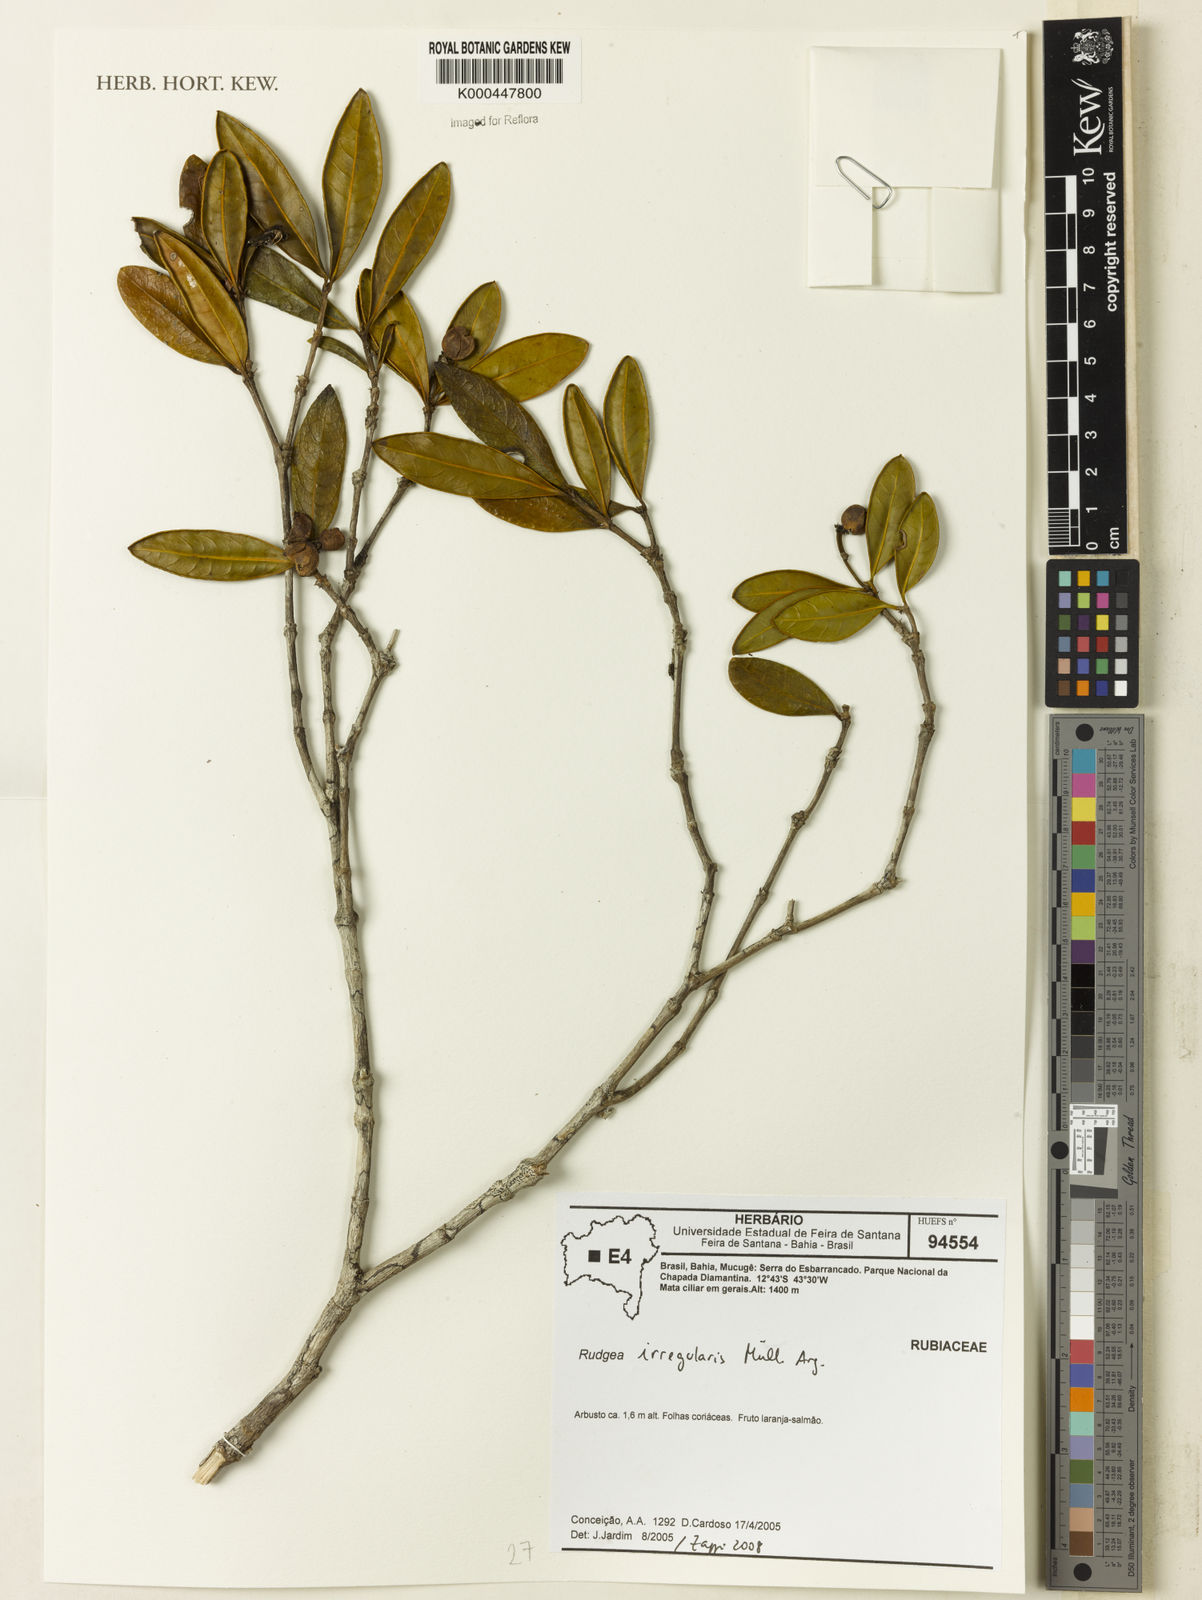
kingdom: Plantae
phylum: Tracheophyta
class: Magnoliopsida
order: Gentianales
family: Rubiaceae
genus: Perama
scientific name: Perama dichotoma
